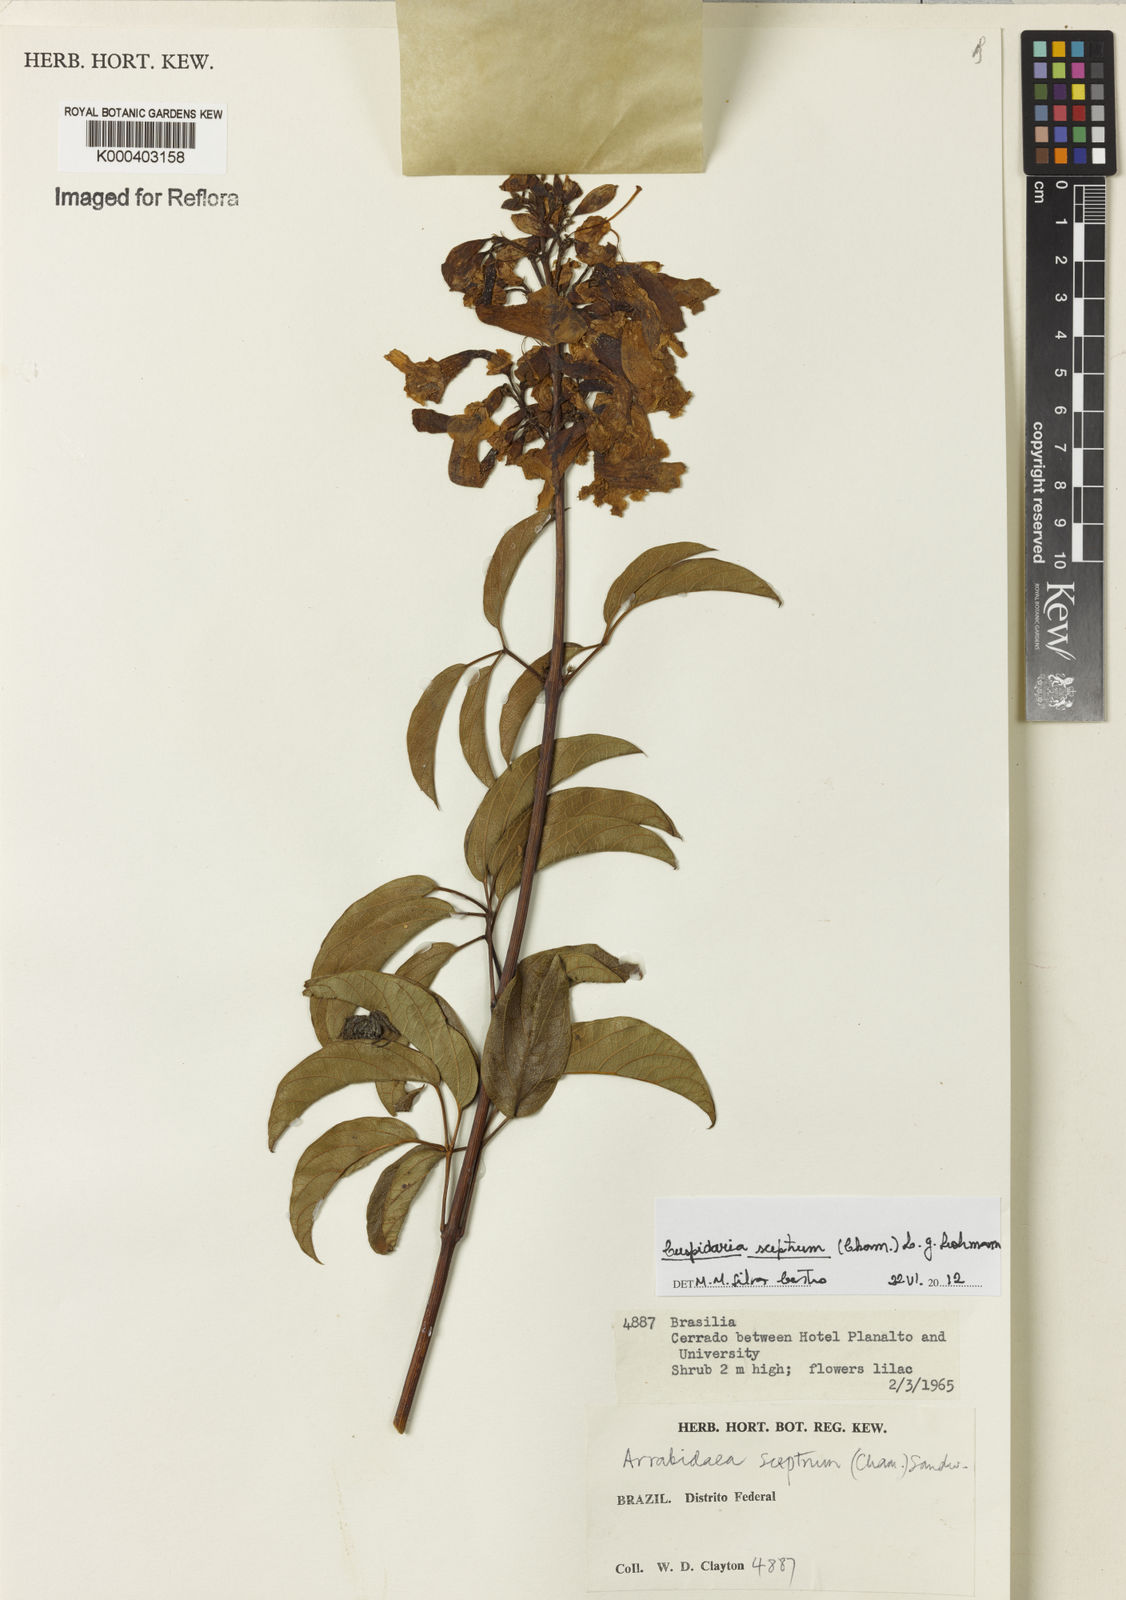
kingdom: Plantae
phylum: Tracheophyta
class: Magnoliopsida
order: Lamiales
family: Bignoniaceae
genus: Cuspidaria
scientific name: Cuspidaria sceptrum
